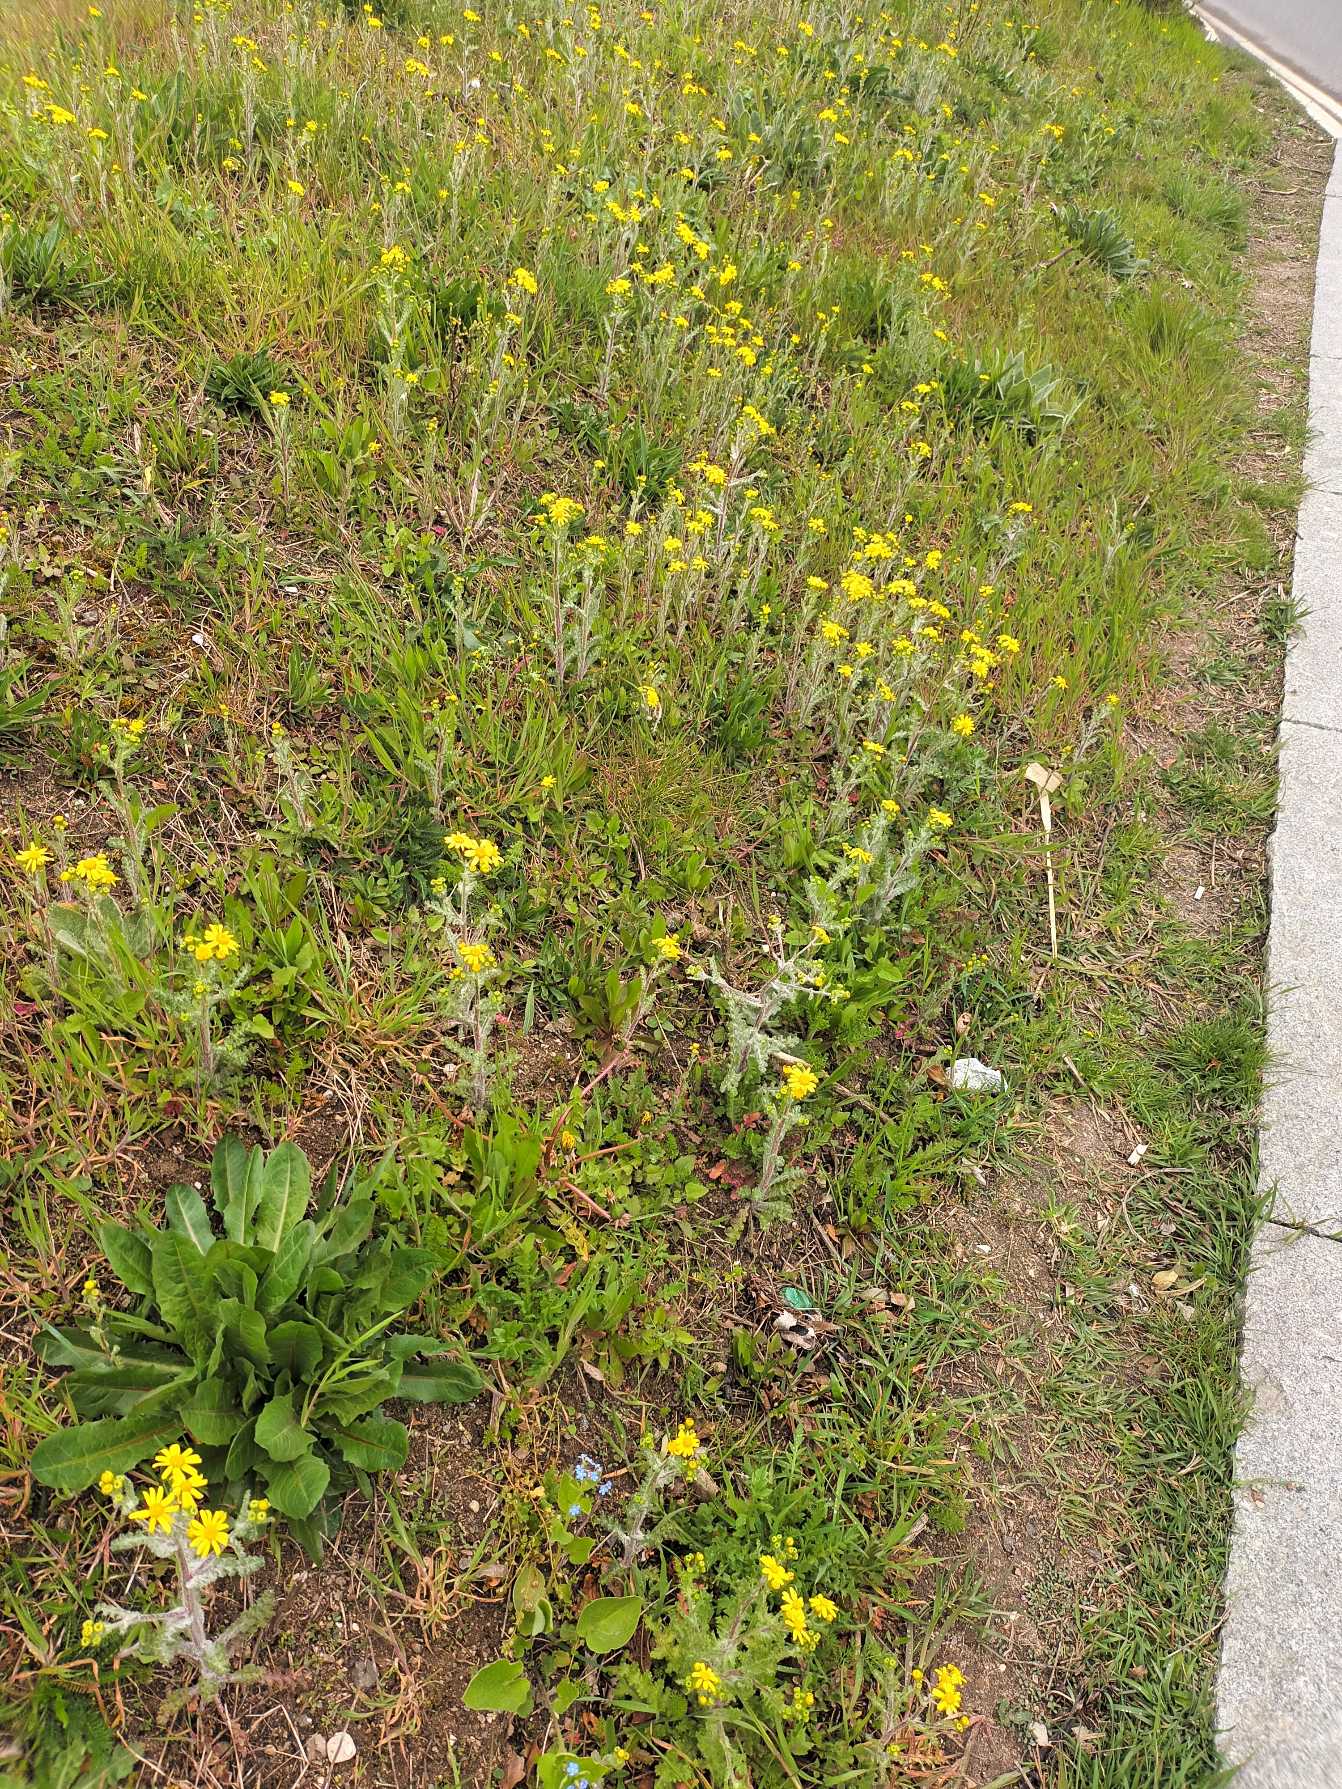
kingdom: Plantae
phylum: Tracheophyta
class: Magnoliopsida
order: Asterales
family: Asteraceae
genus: Senecio
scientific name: Senecio vernalis
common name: Vår-brandbæger (underart)
